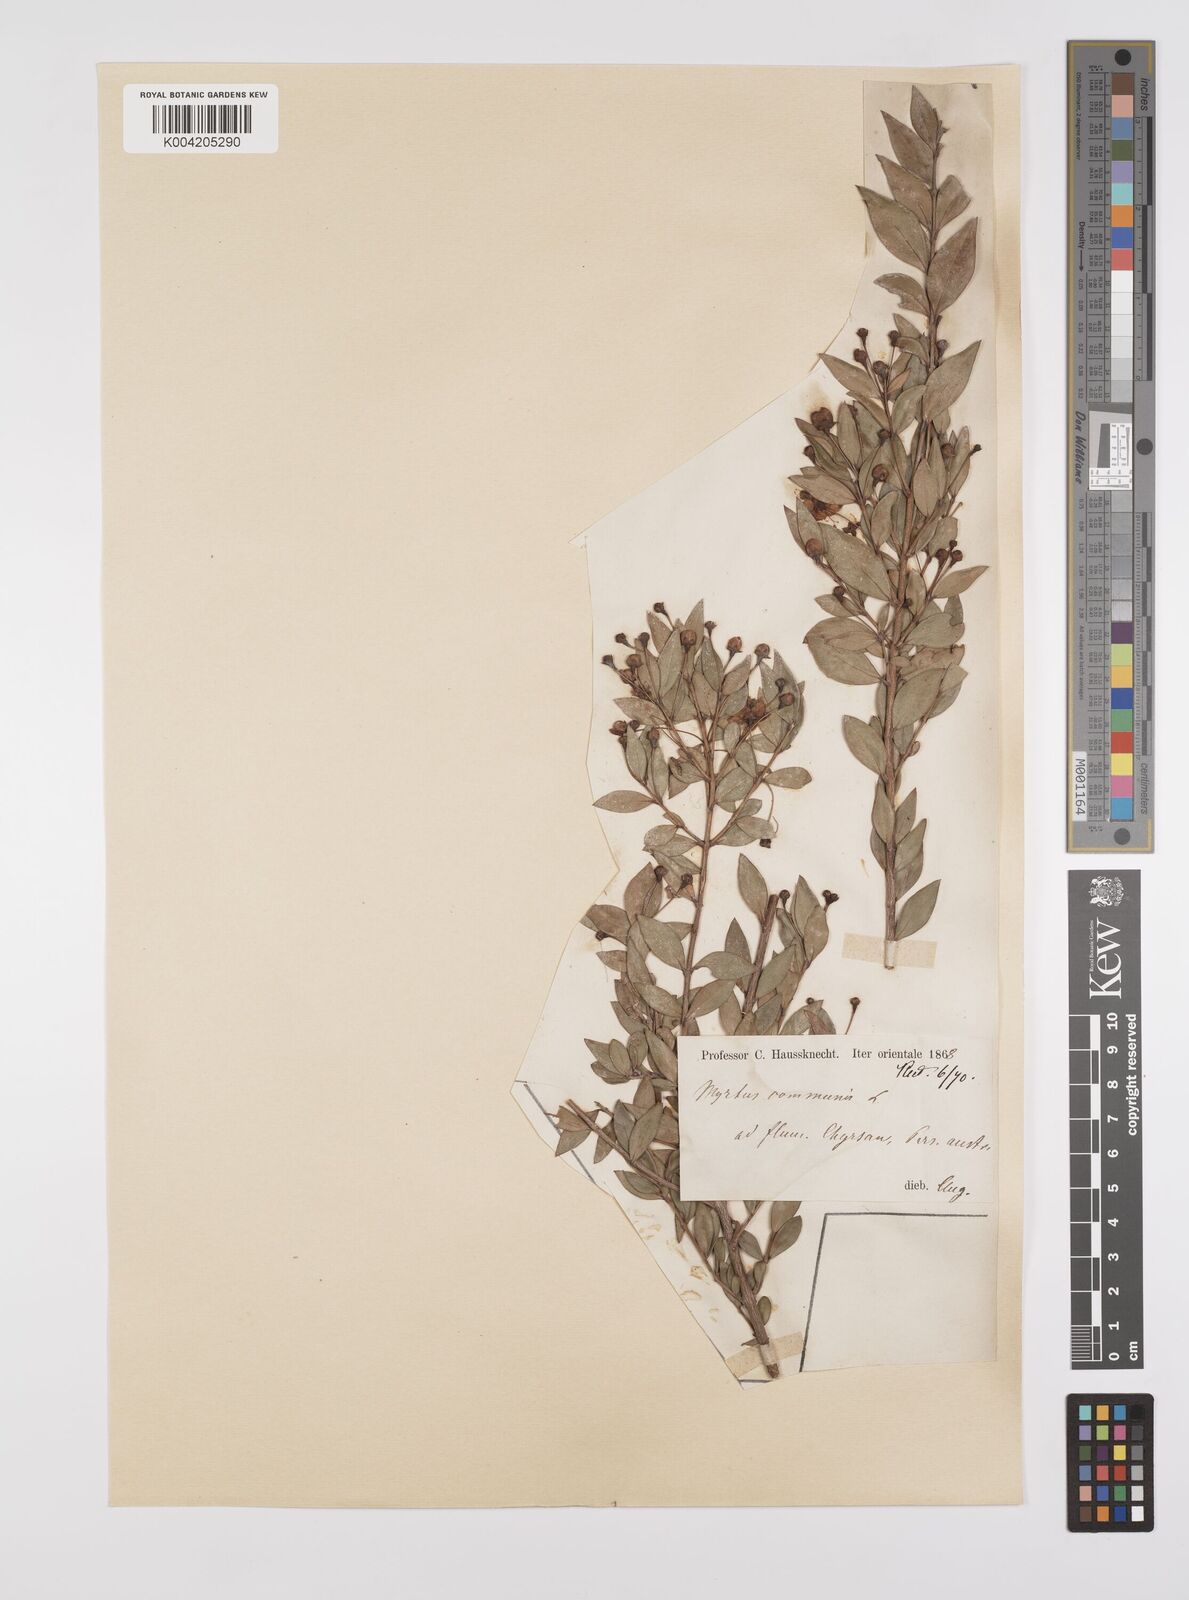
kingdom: Plantae
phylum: Tracheophyta
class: Magnoliopsida
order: Myrtales
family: Myrtaceae
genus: Myrtus
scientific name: Myrtus communis
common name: Myrtle
